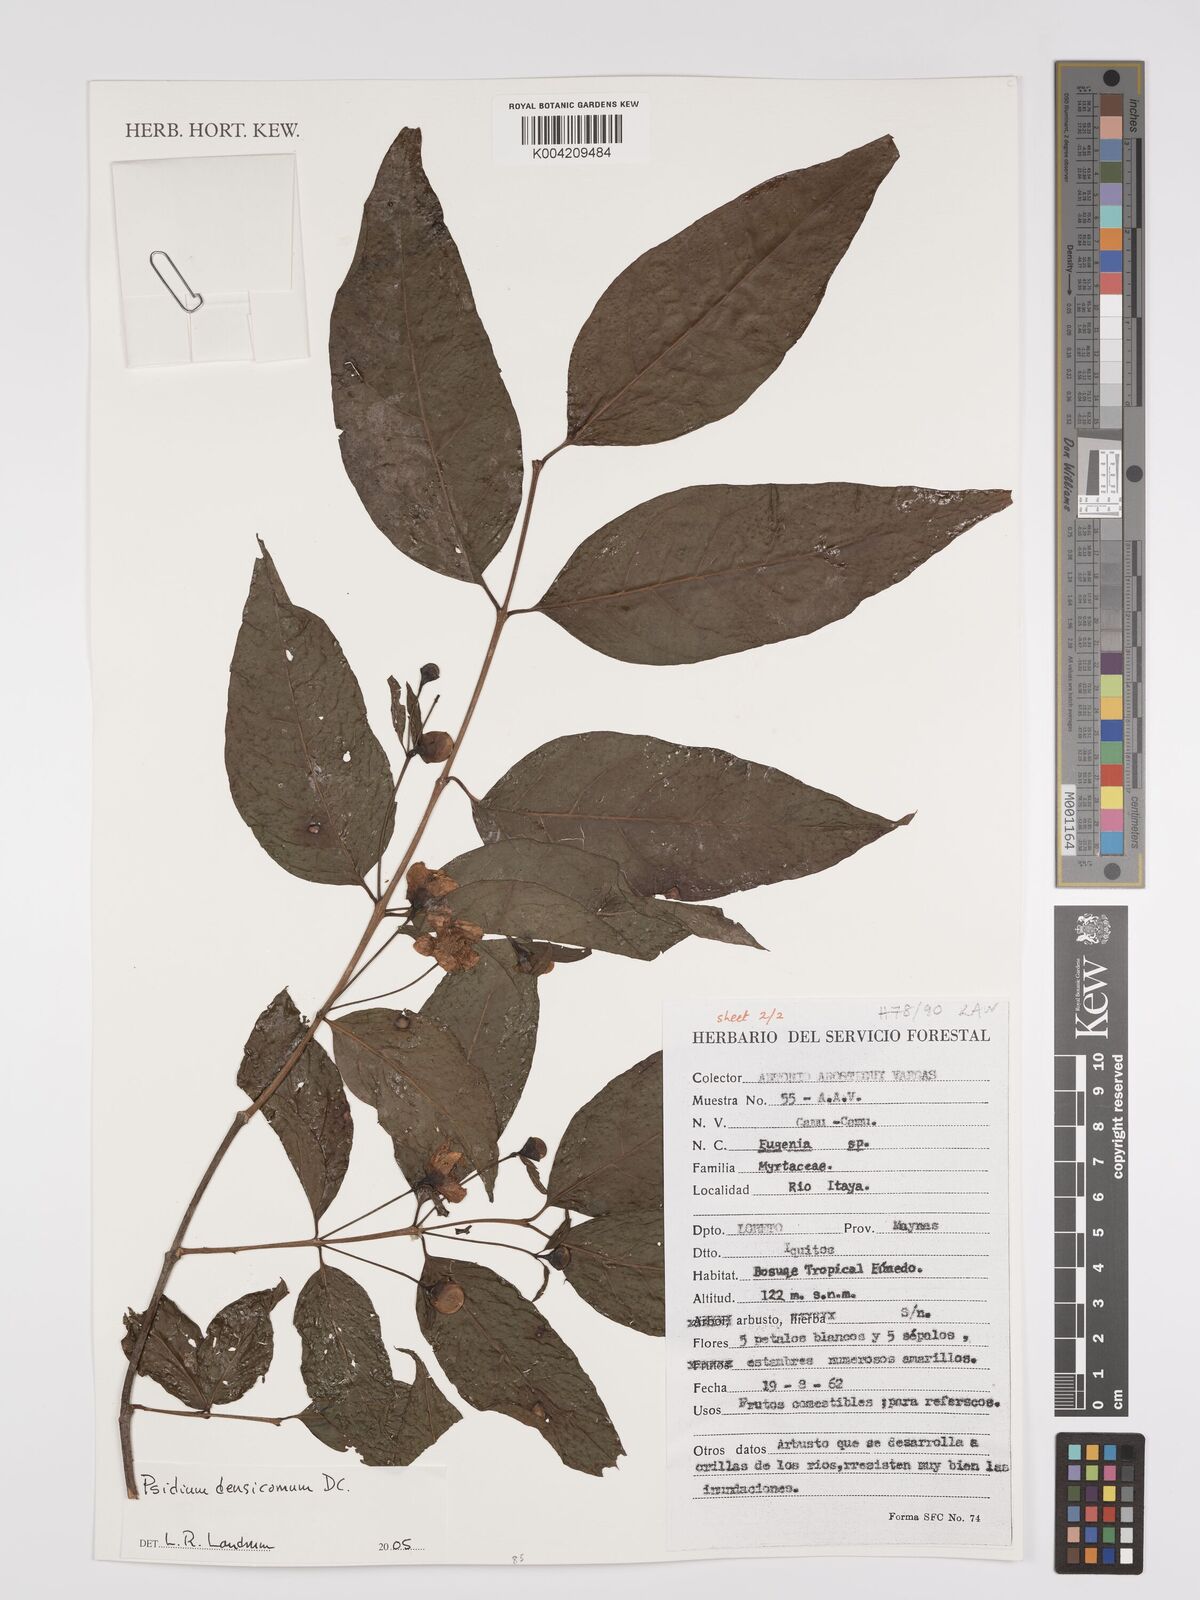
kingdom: Plantae
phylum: Tracheophyta
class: Magnoliopsida
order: Myrtales
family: Myrtaceae
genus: Psidium
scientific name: Psidium densicomum
